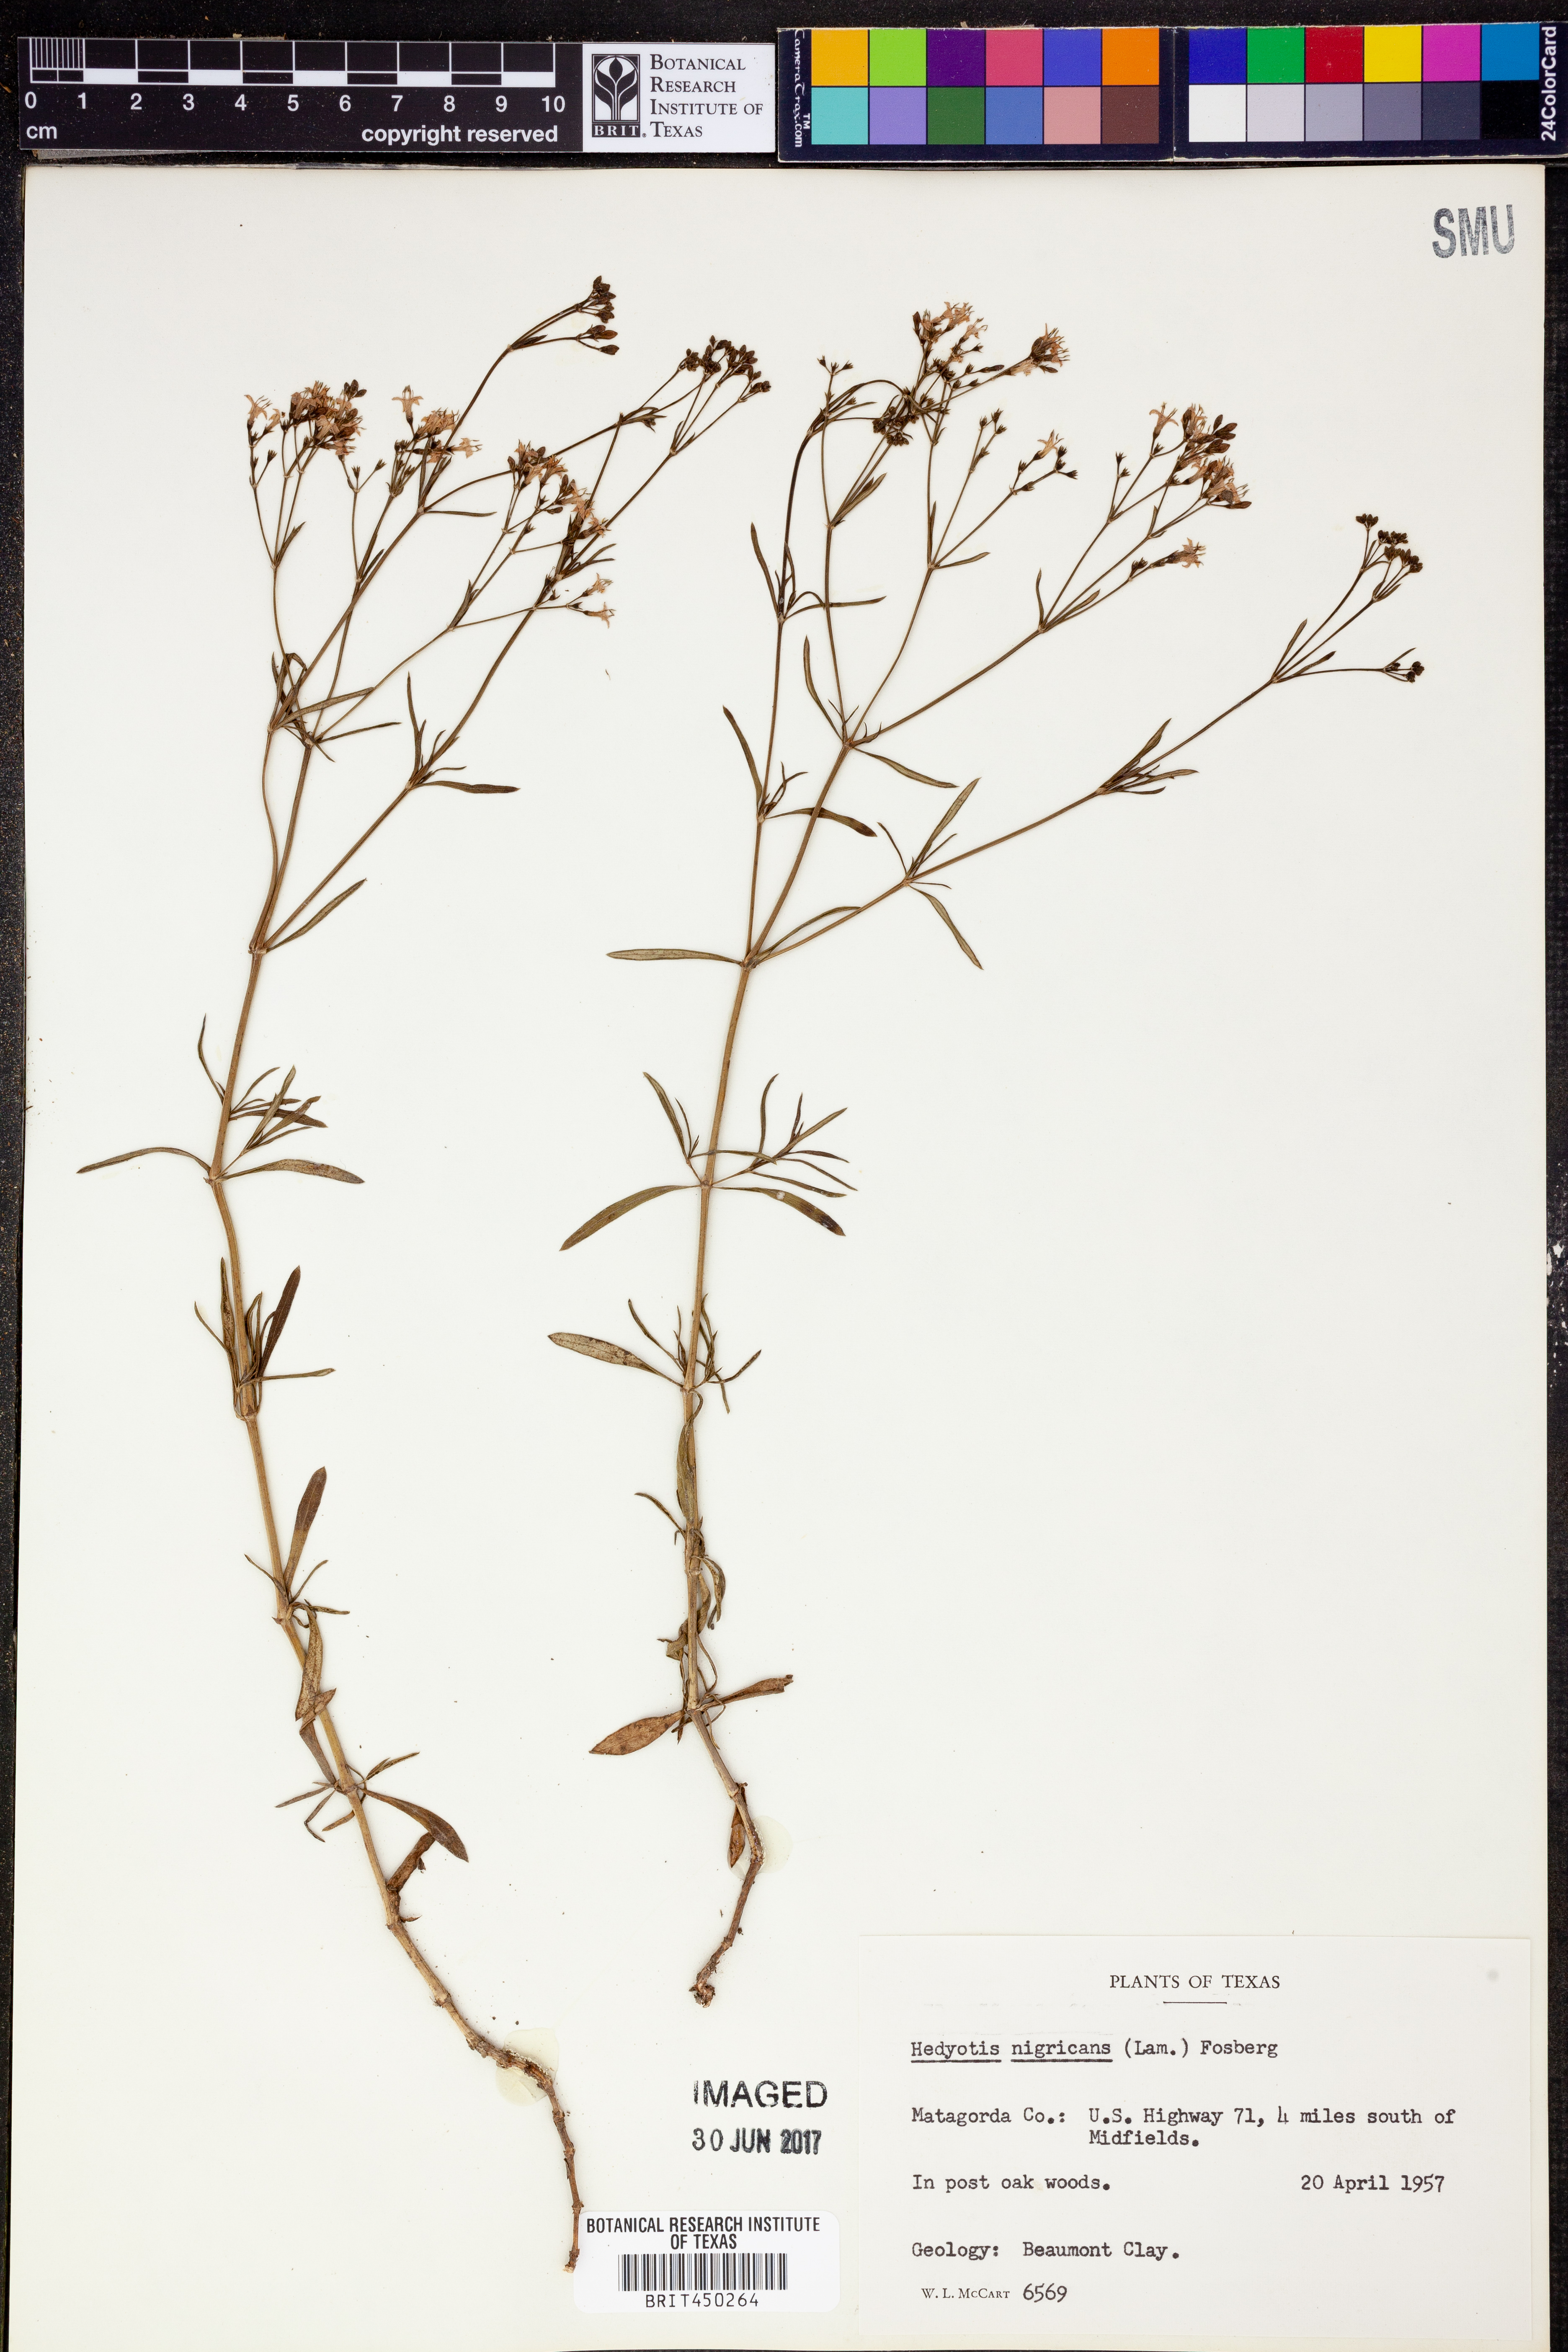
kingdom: Plantae
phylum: Tracheophyta
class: Magnoliopsida
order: Gentianales
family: Rubiaceae
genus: Stenaria
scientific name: Stenaria nigricans
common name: Diamondflowers
